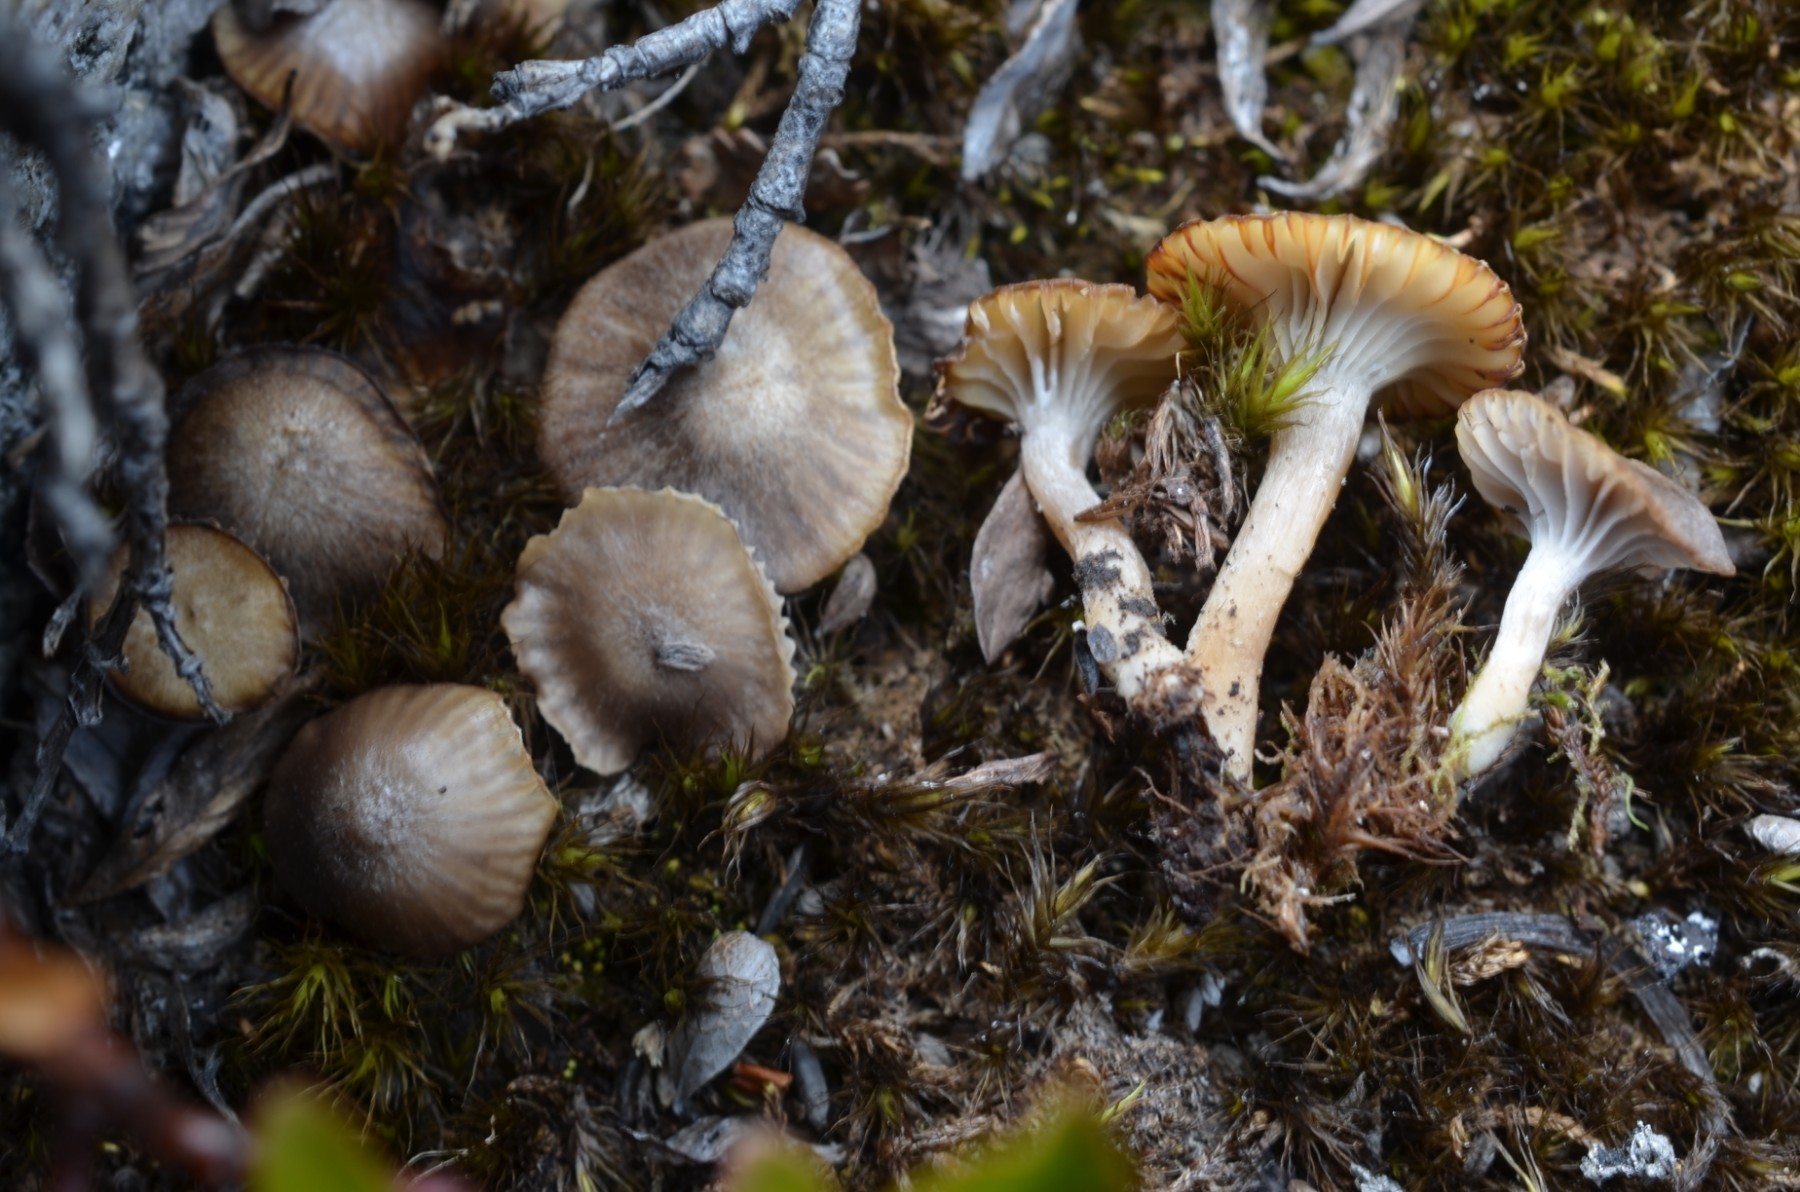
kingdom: Fungi
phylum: Basidiomycota
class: Agaricomycetes
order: Agaricales
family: Hygrophoraceae
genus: Cuphophyllus
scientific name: Cuphophyllus
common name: vokshat
